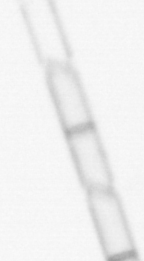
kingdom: Chromista
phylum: Ochrophyta
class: Bacillariophyceae
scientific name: Bacillariophyceae
